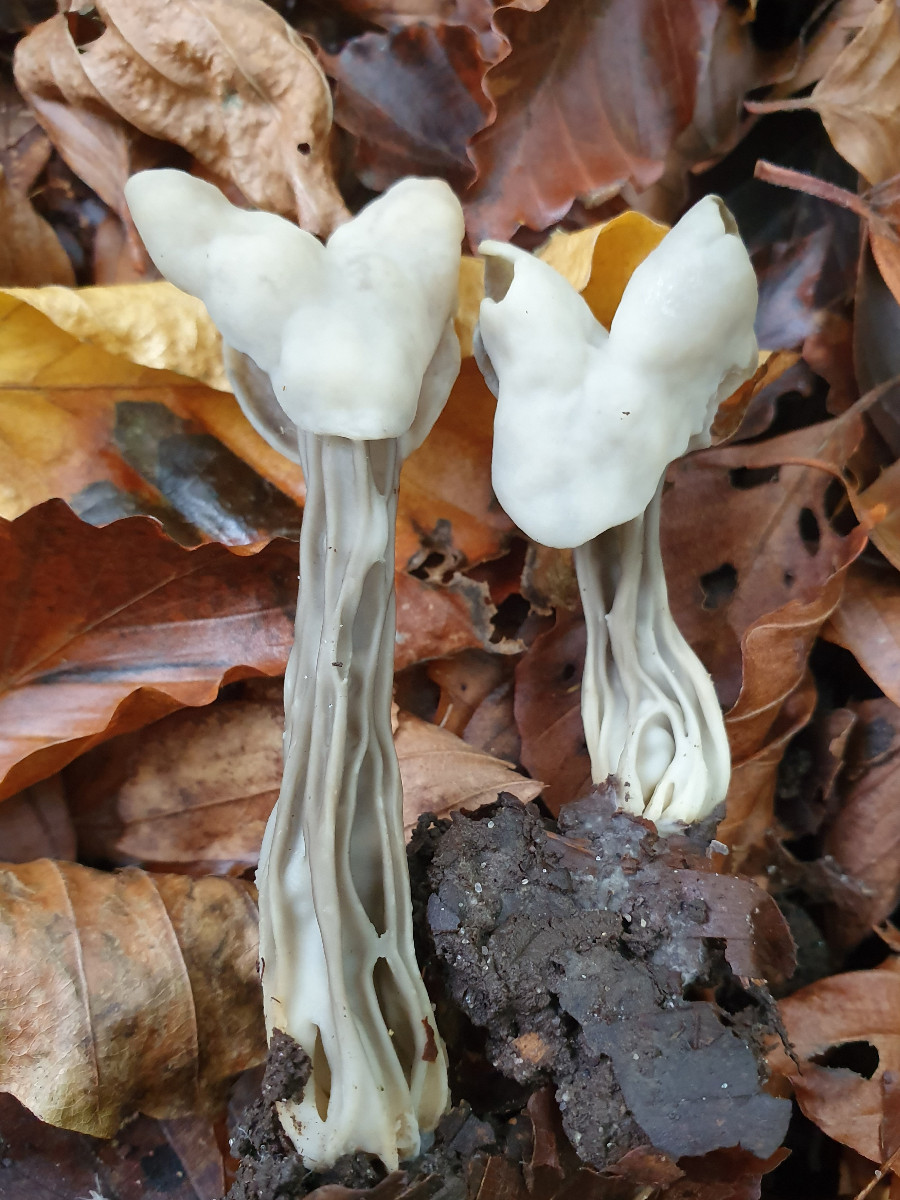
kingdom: Fungi
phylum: Ascomycota
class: Pezizomycetes
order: Pezizales
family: Helvellaceae
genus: Helvella
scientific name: Helvella lacunosa
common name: grubet foldhat
